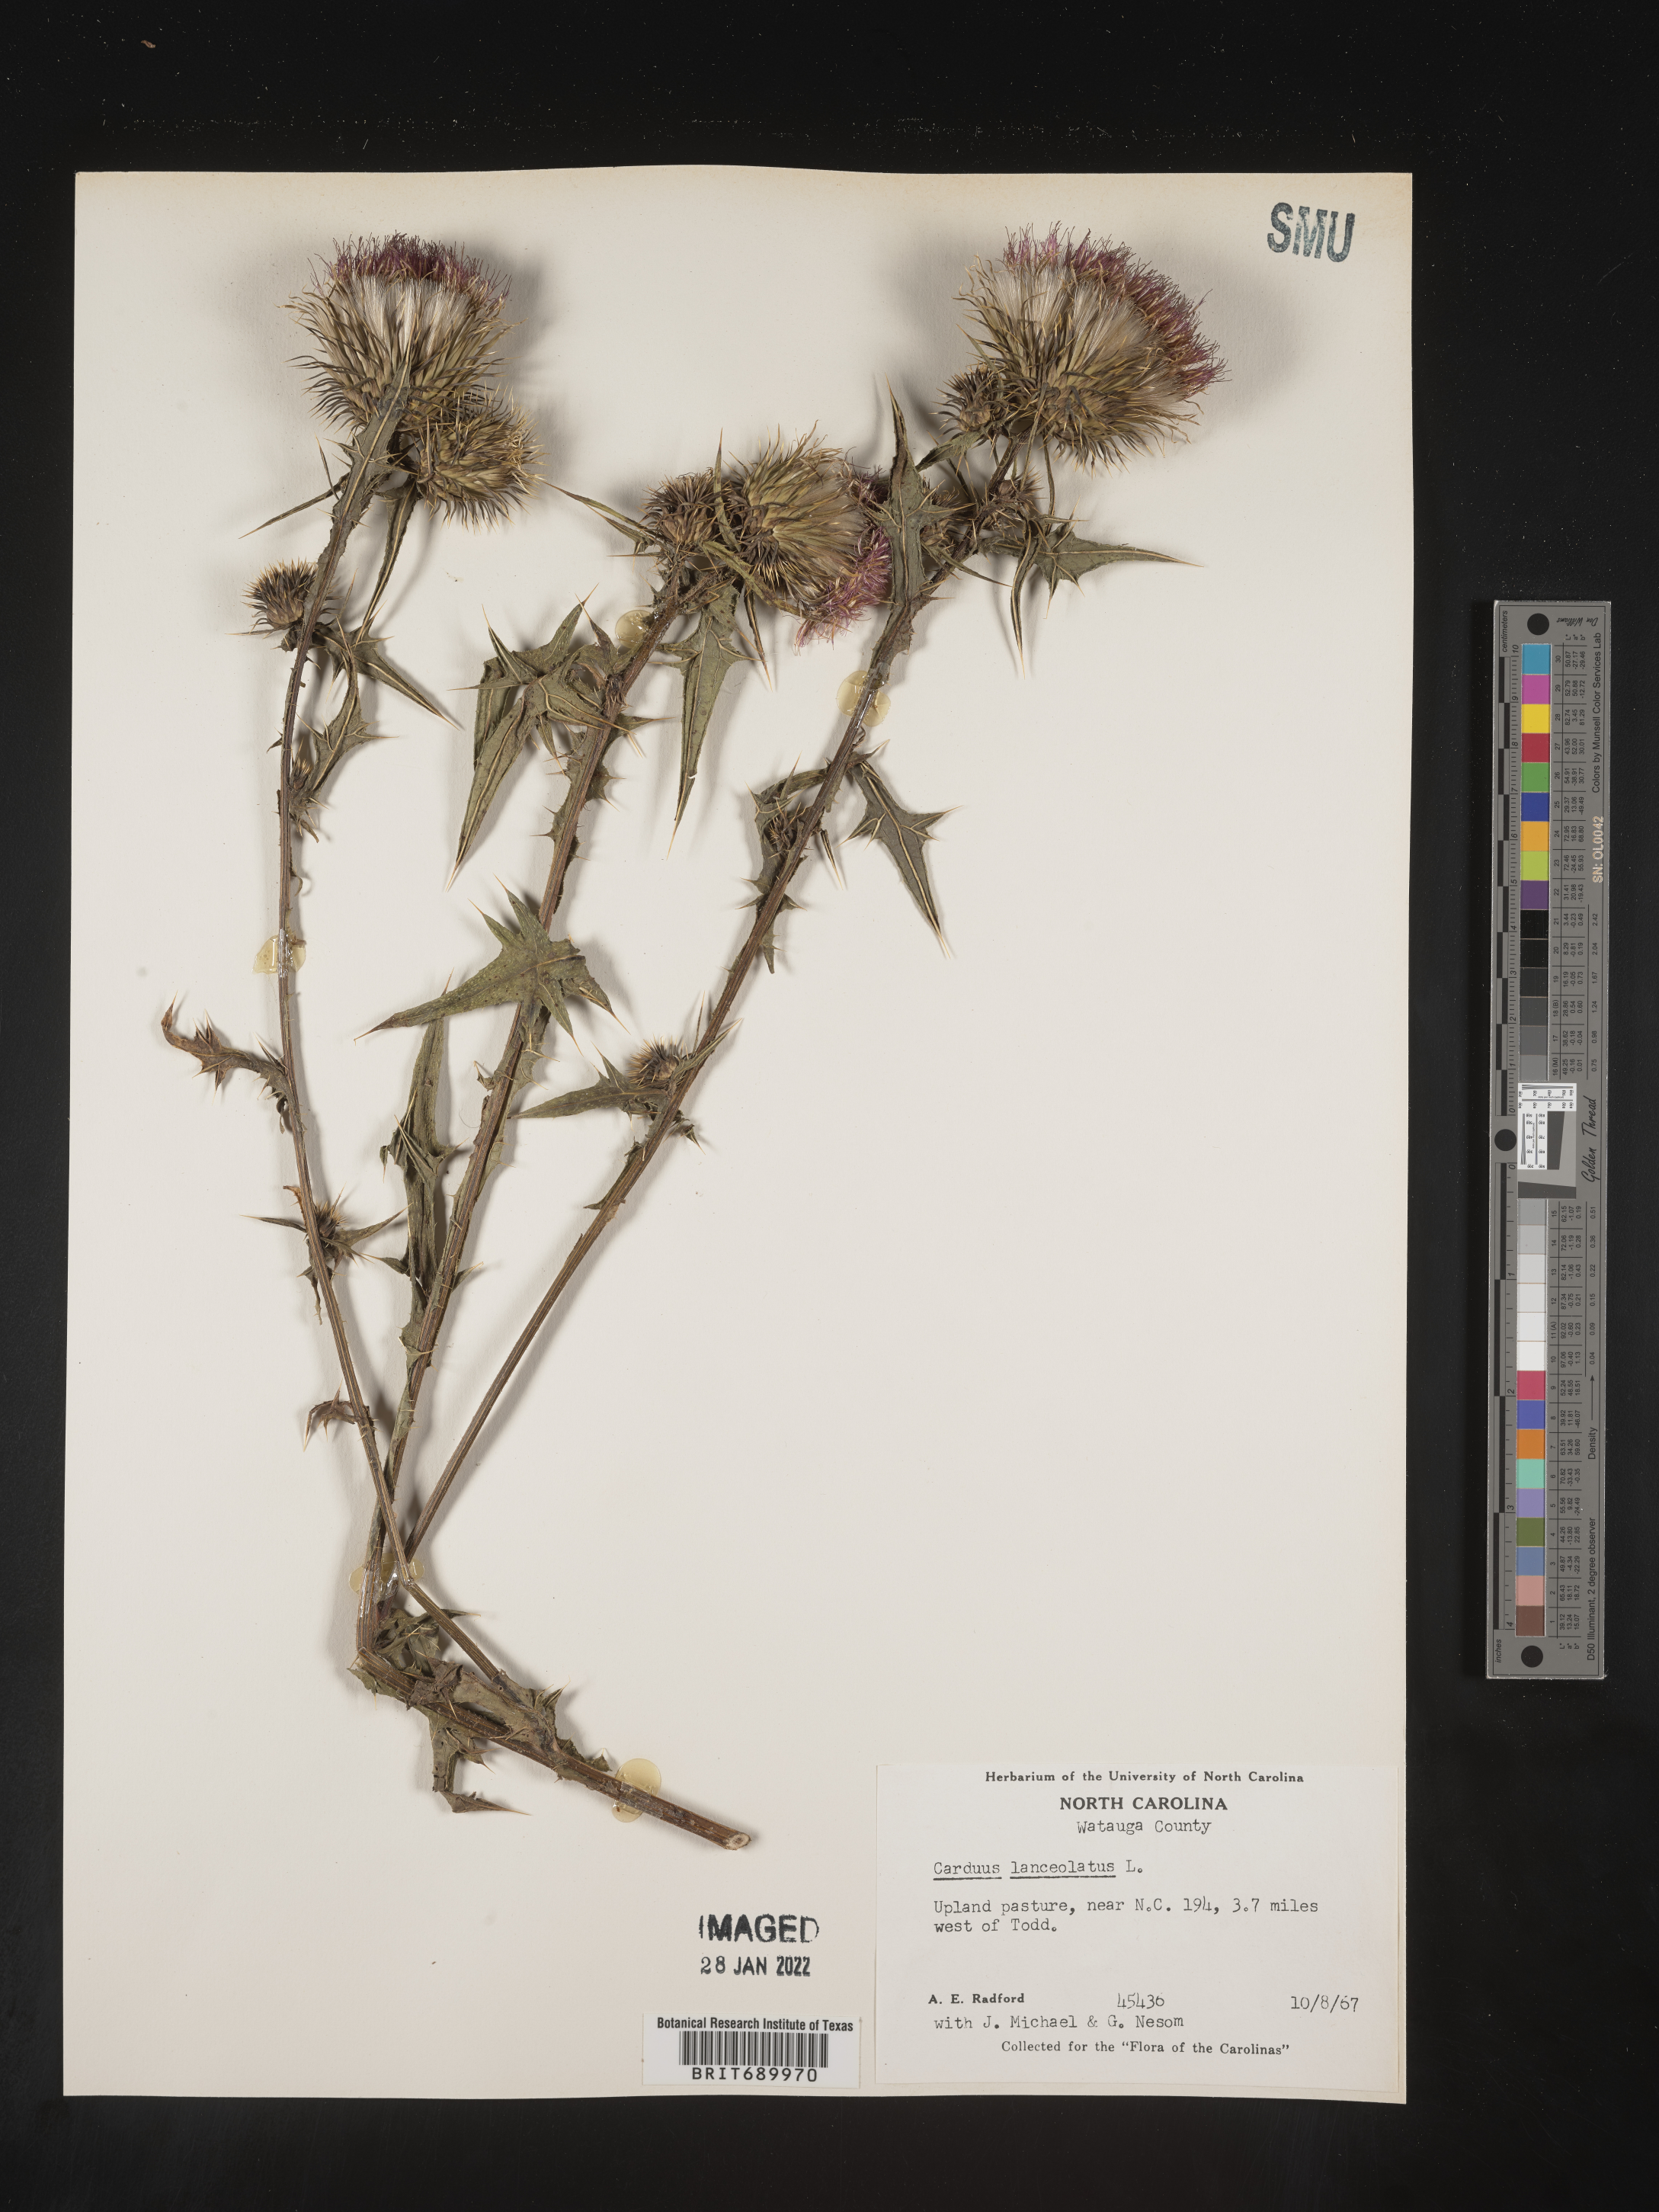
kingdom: Plantae
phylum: Tracheophyta
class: Magnoliopsida
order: Asterales
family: Asteraceae
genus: Cirsium
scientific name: Cirsium vulgare
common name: Bull thistle
